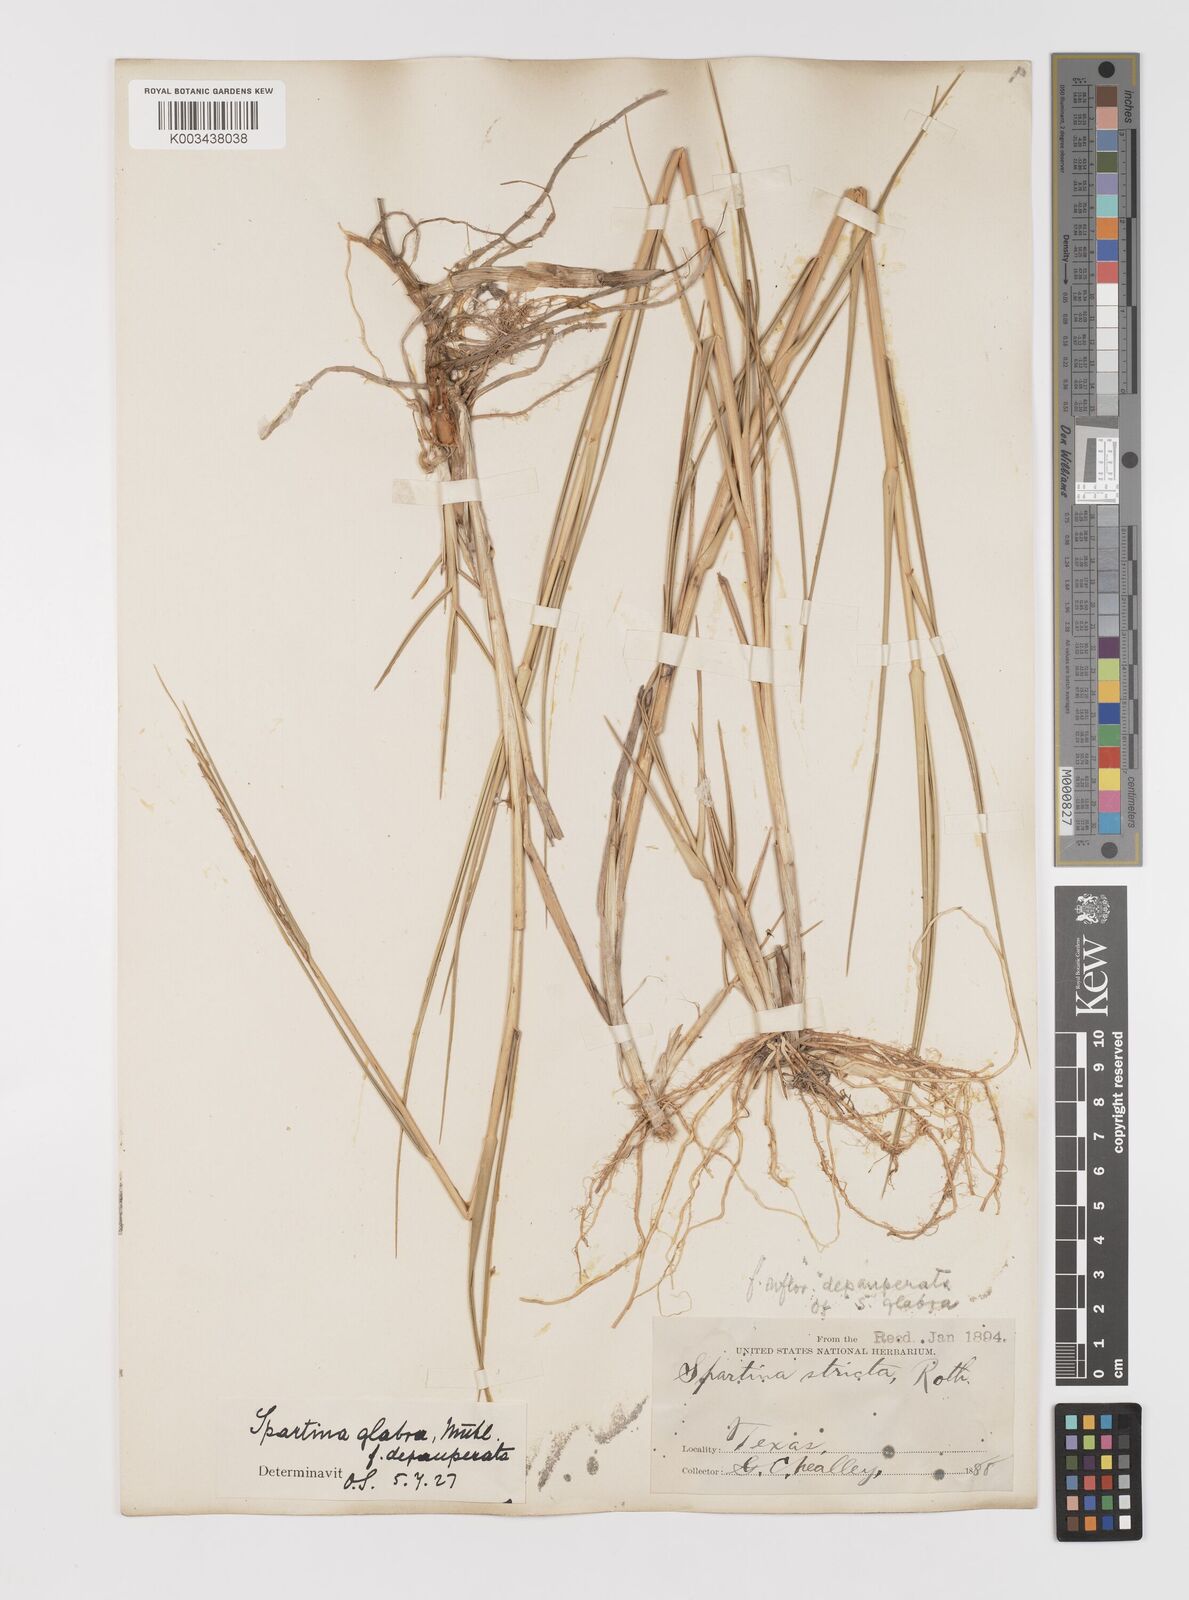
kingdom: Plantae
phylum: Tracheophyta
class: Liliopsida
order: Poales
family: Poaceae
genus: Sporobolus
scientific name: Sporobolus alterniflorus
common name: Atlantic cordgrass
